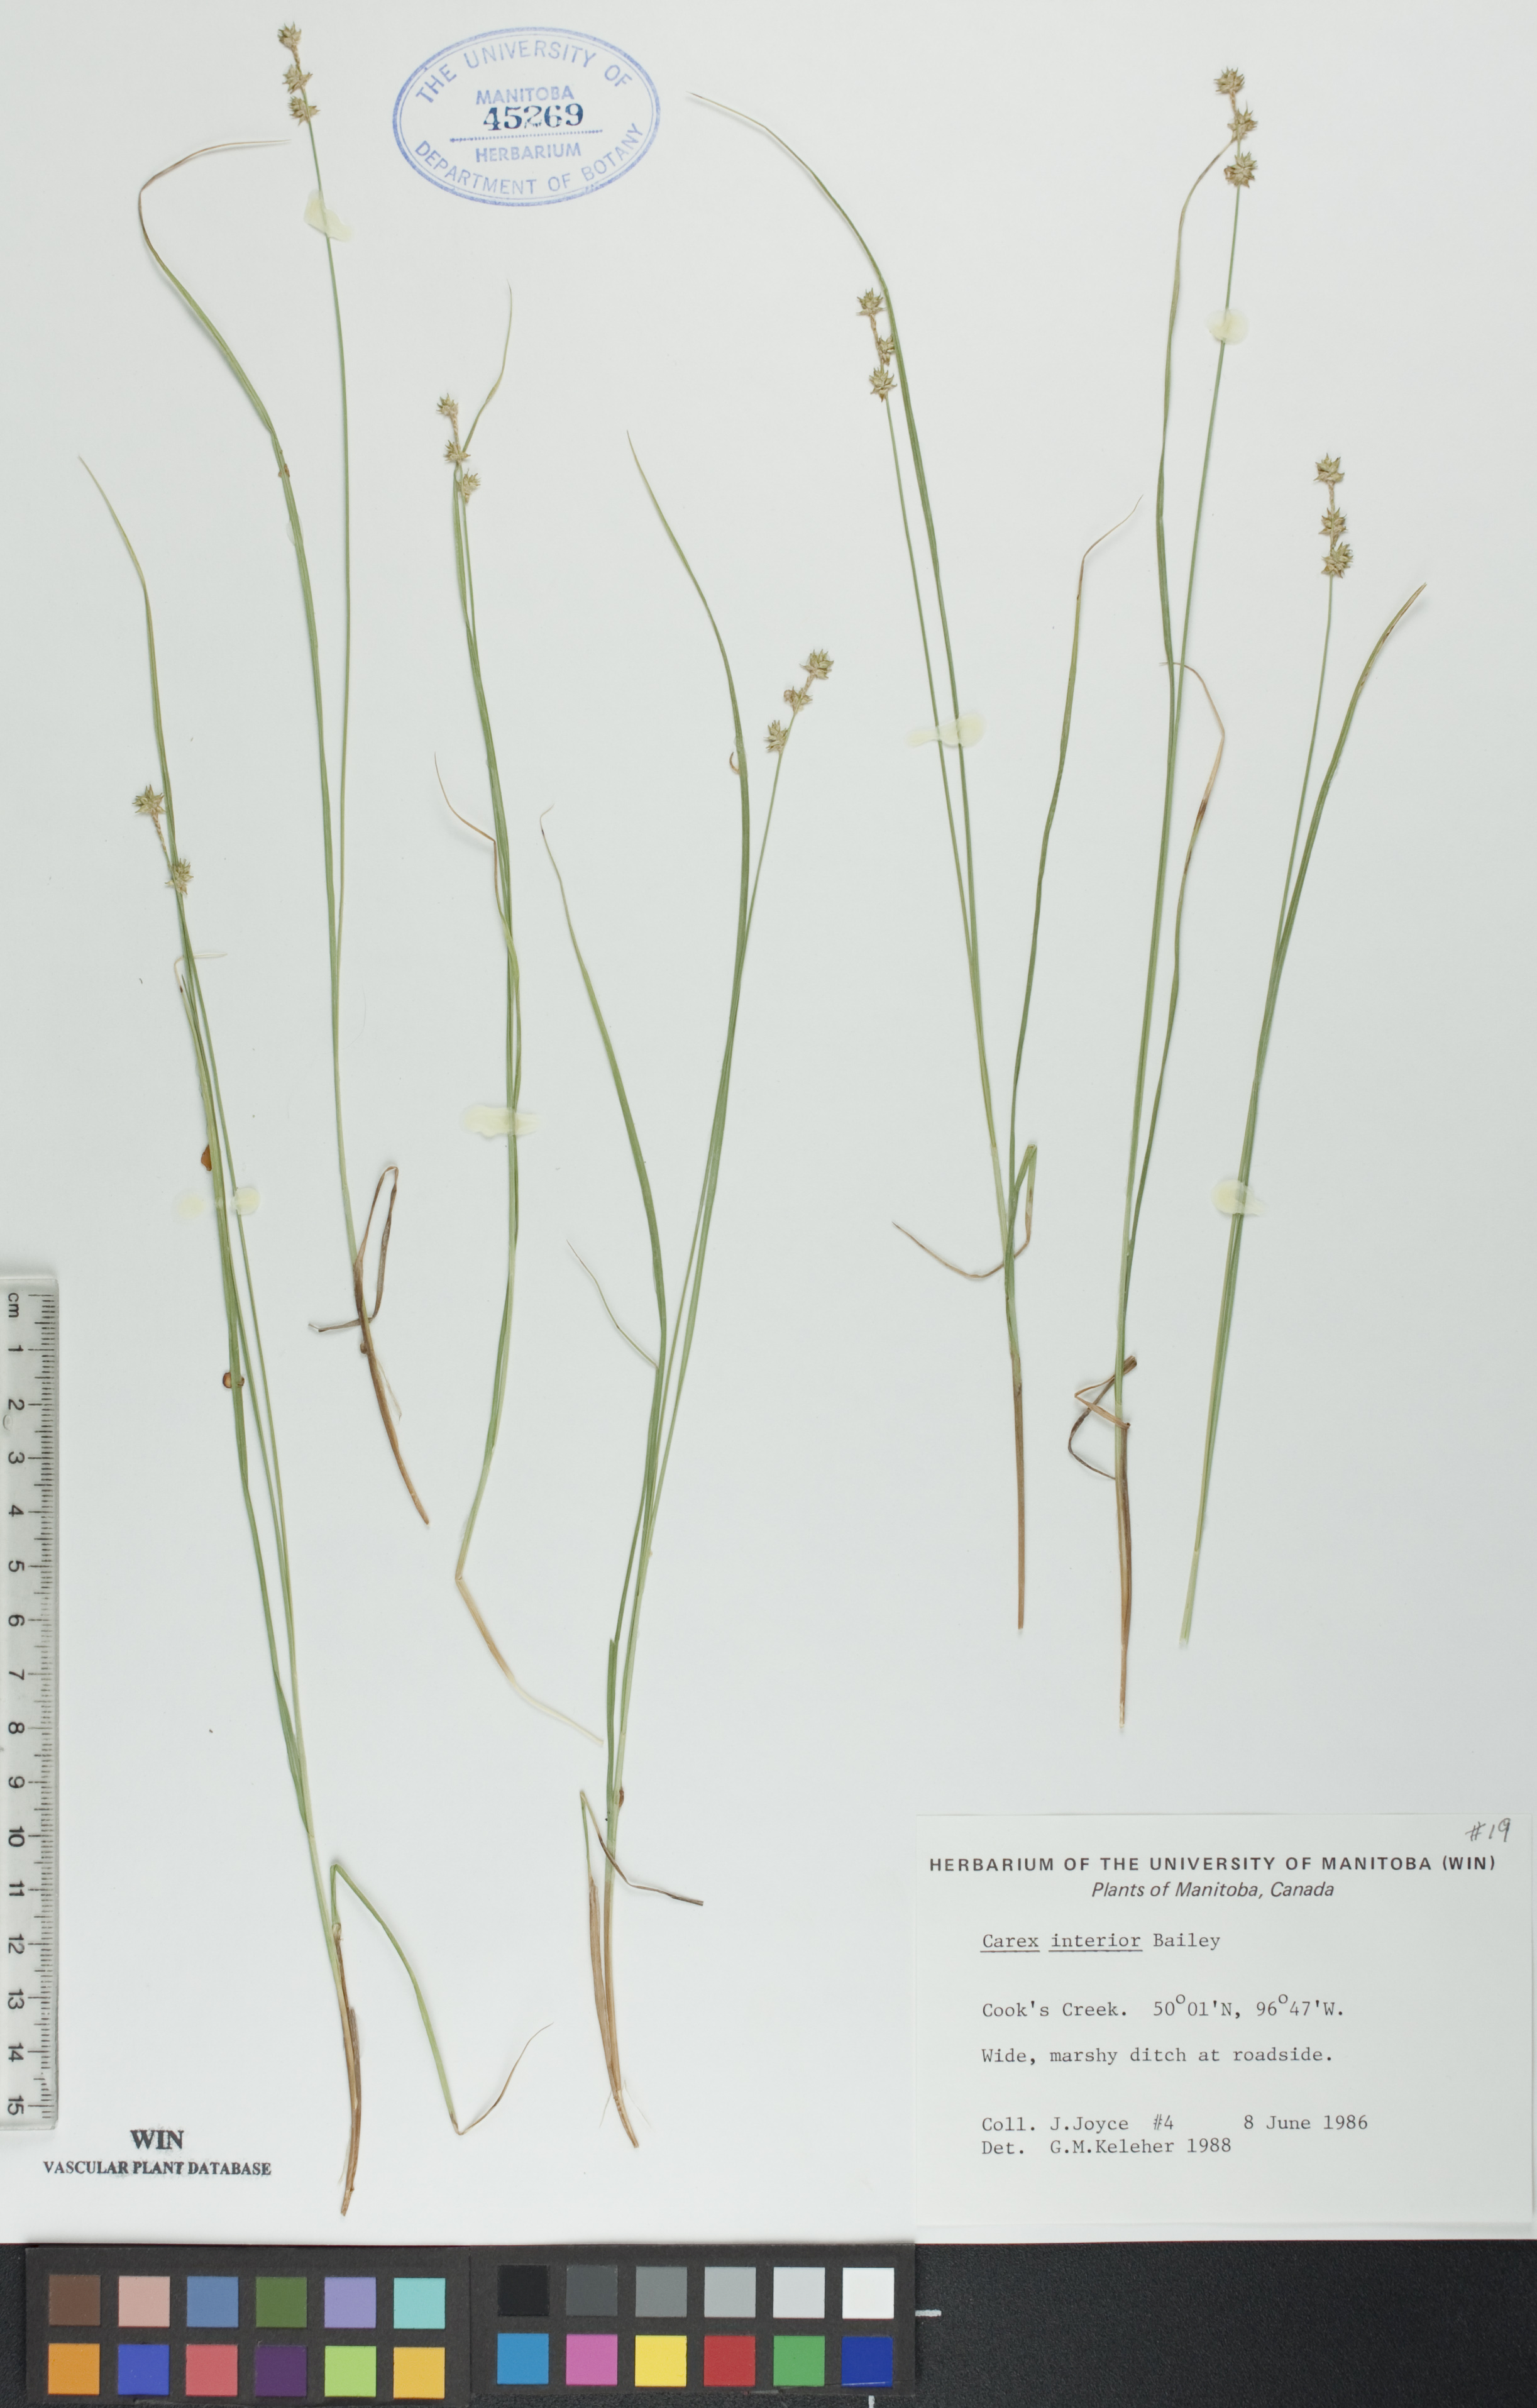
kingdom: Plantae
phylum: Tracheophyta
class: Liliopsida
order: Poales
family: Cyperaceae
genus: Carex
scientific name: Carex interior
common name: Inland sedge
